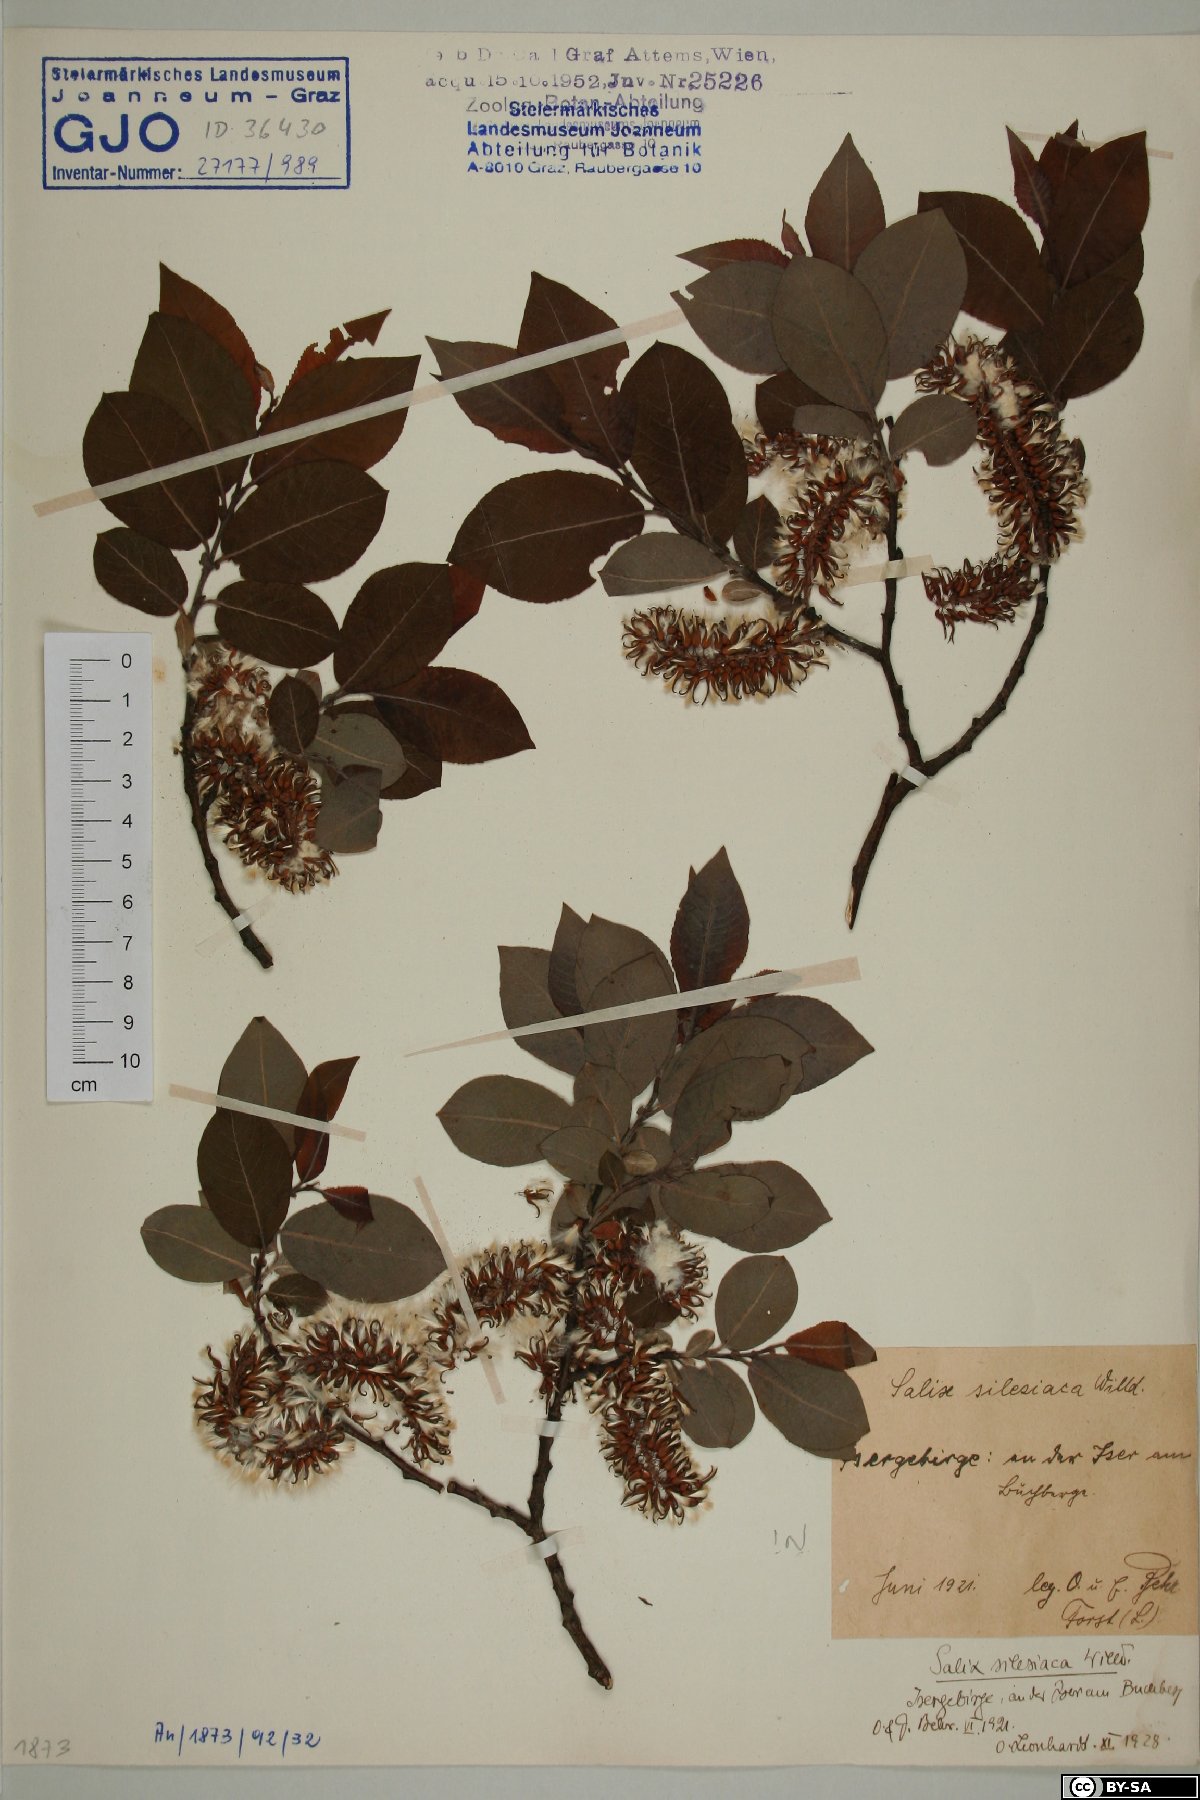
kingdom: Plantae
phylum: Tracheophyta
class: Magnoliopsida
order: Malpighiales
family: Salicaceae
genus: Salix
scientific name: Salix silesiaca
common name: Silesian willow
